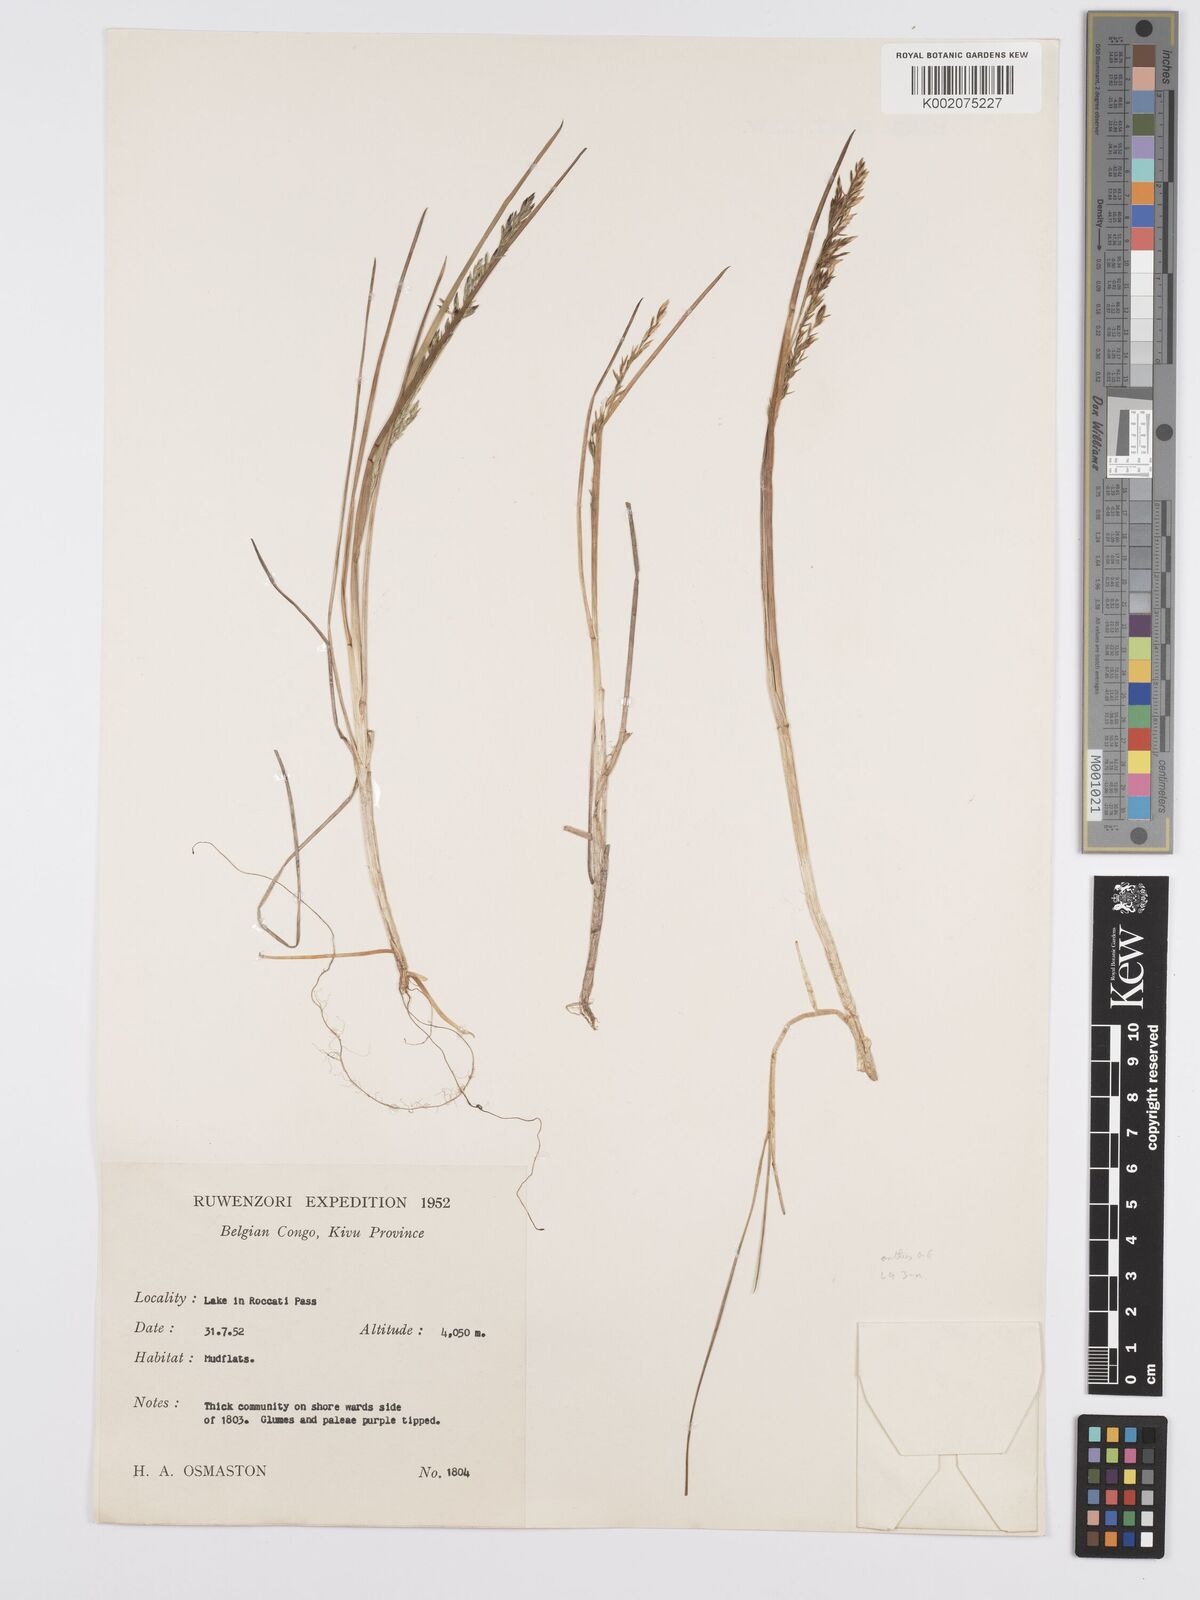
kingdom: Plantae
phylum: Tracheophyta
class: Liliopsida
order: Poales
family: Poaceae
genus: Poa
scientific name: Poa schimperiana
